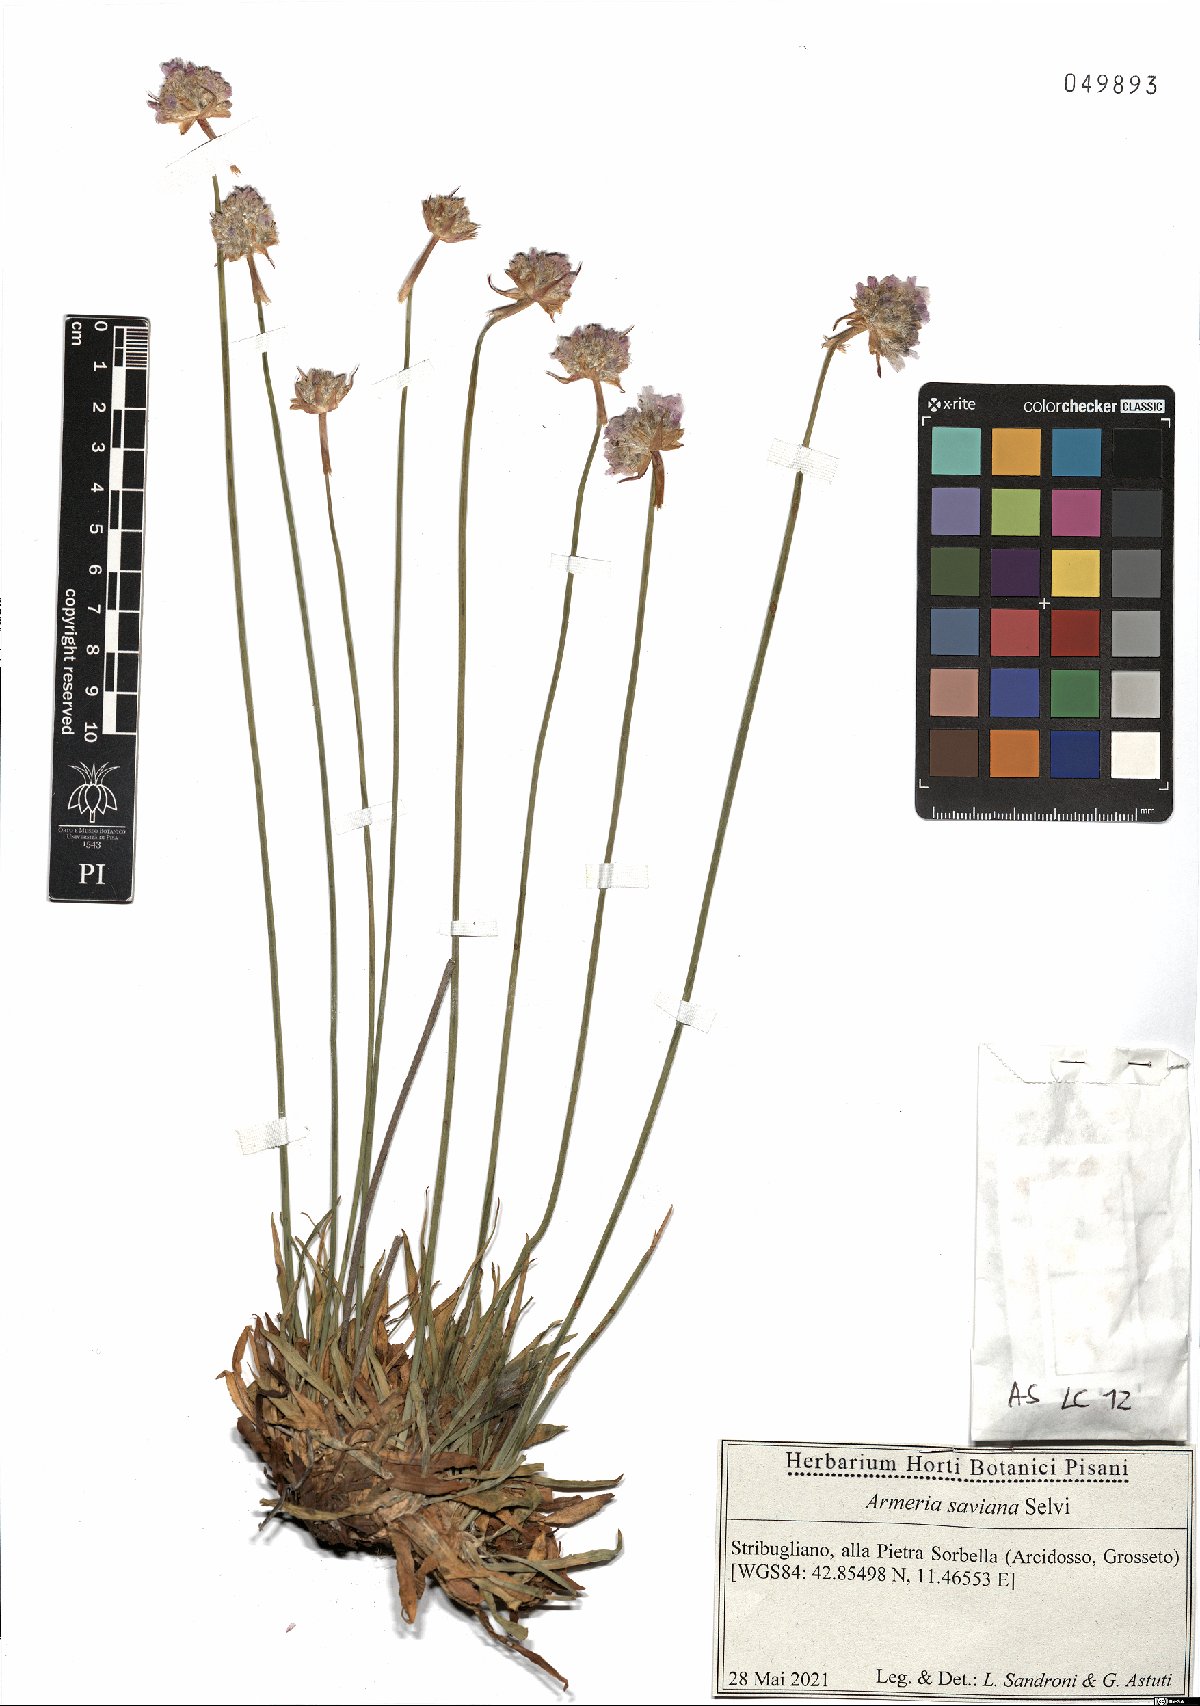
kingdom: Plantae
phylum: Tracheophyta
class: Magnoliopsida
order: Caryophyllales
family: Plumbaginaceae
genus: Armeria
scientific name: Armeria saviana
